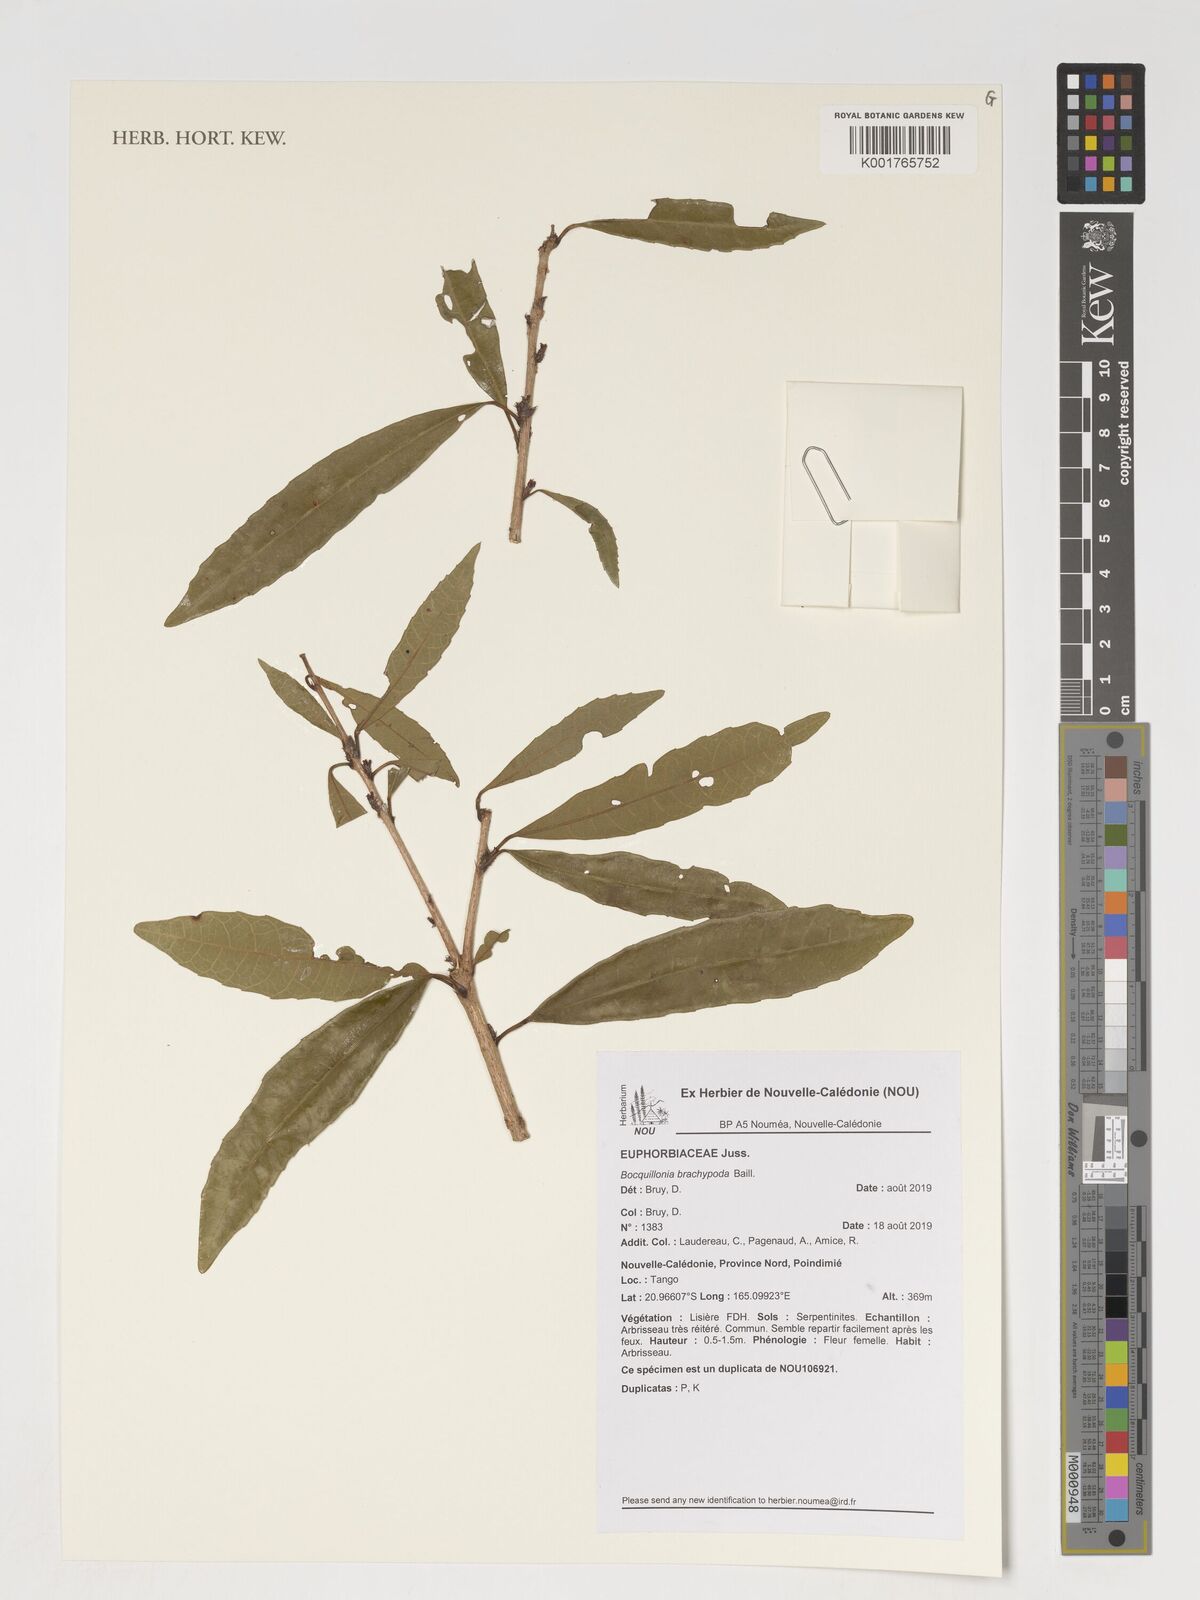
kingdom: Plantae
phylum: Tracheophyta
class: Magnoliopsida
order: Malpighiales
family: Euphorbiaceae
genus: Bocquillonia
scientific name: Bocquillonia brachypoda
